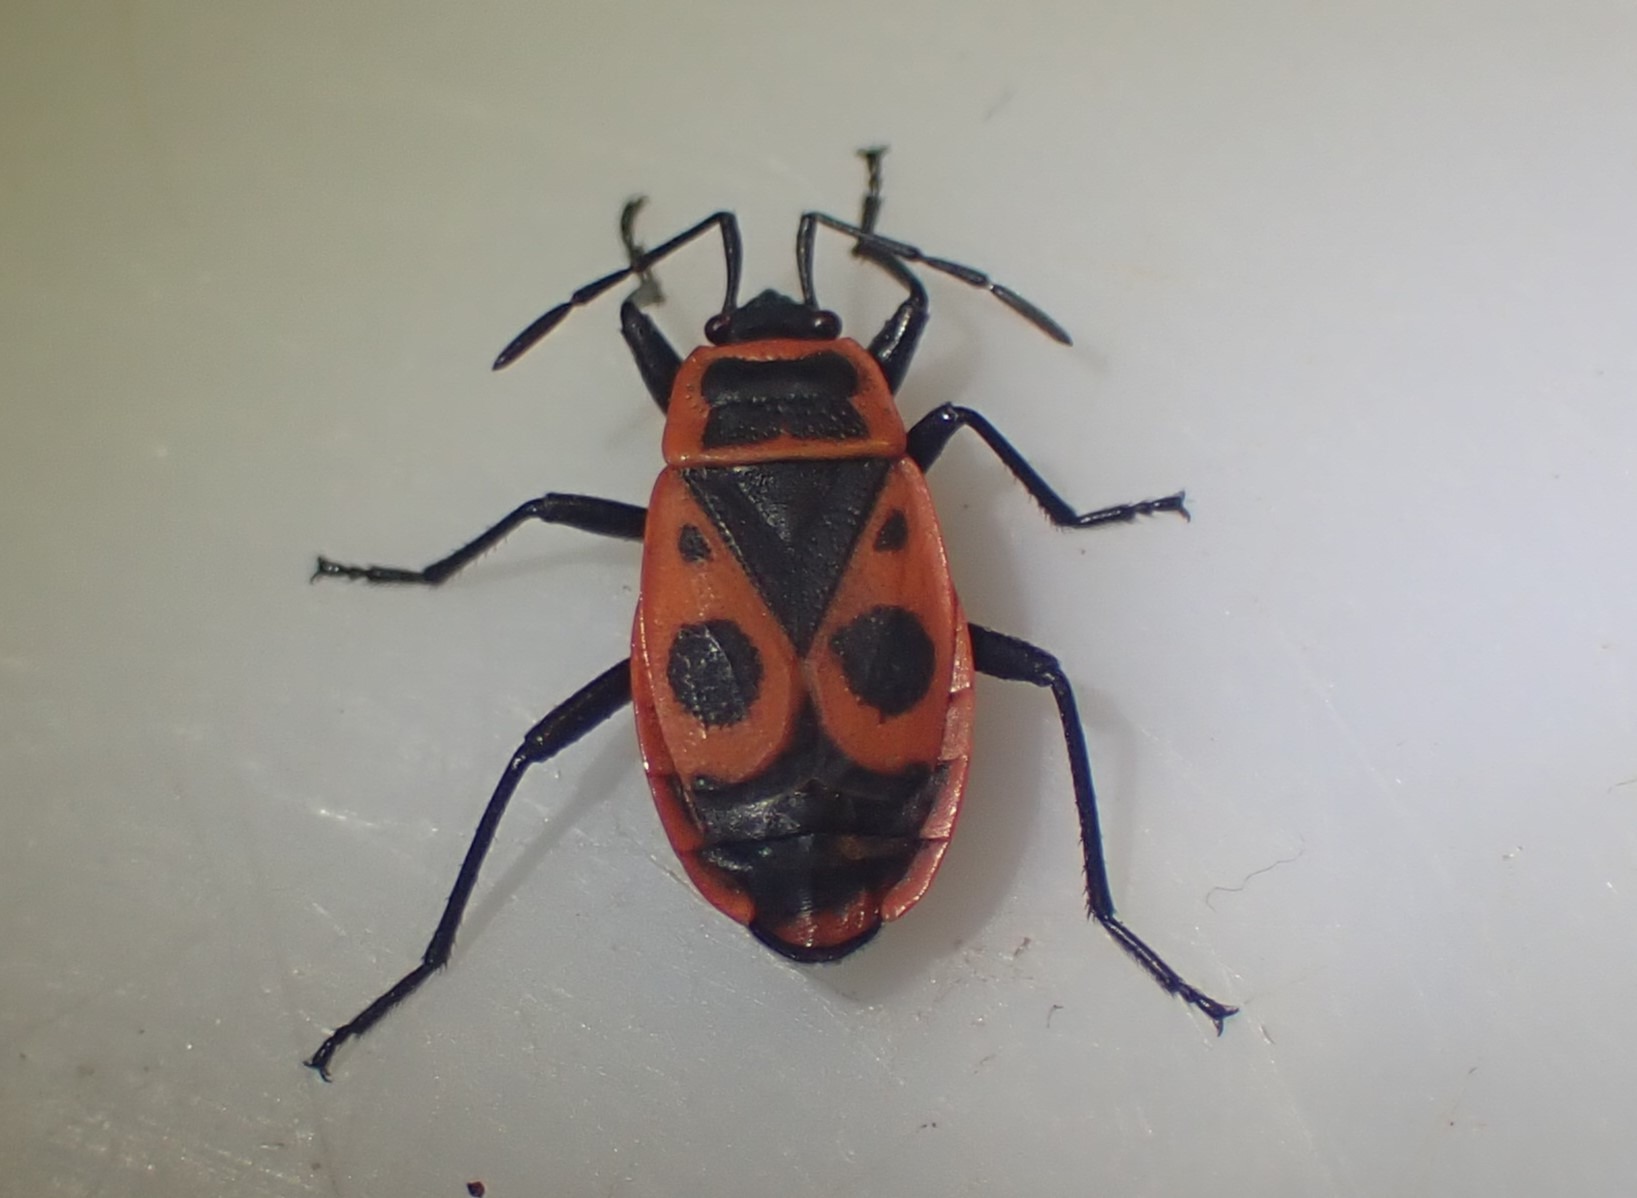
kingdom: Animalia
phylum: Arthropoda
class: Insecta
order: Hemiptera
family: Pyrrhocoridae
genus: Pyrrhocoris
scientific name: Pyrrhocoris apterus
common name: Ildtæge
